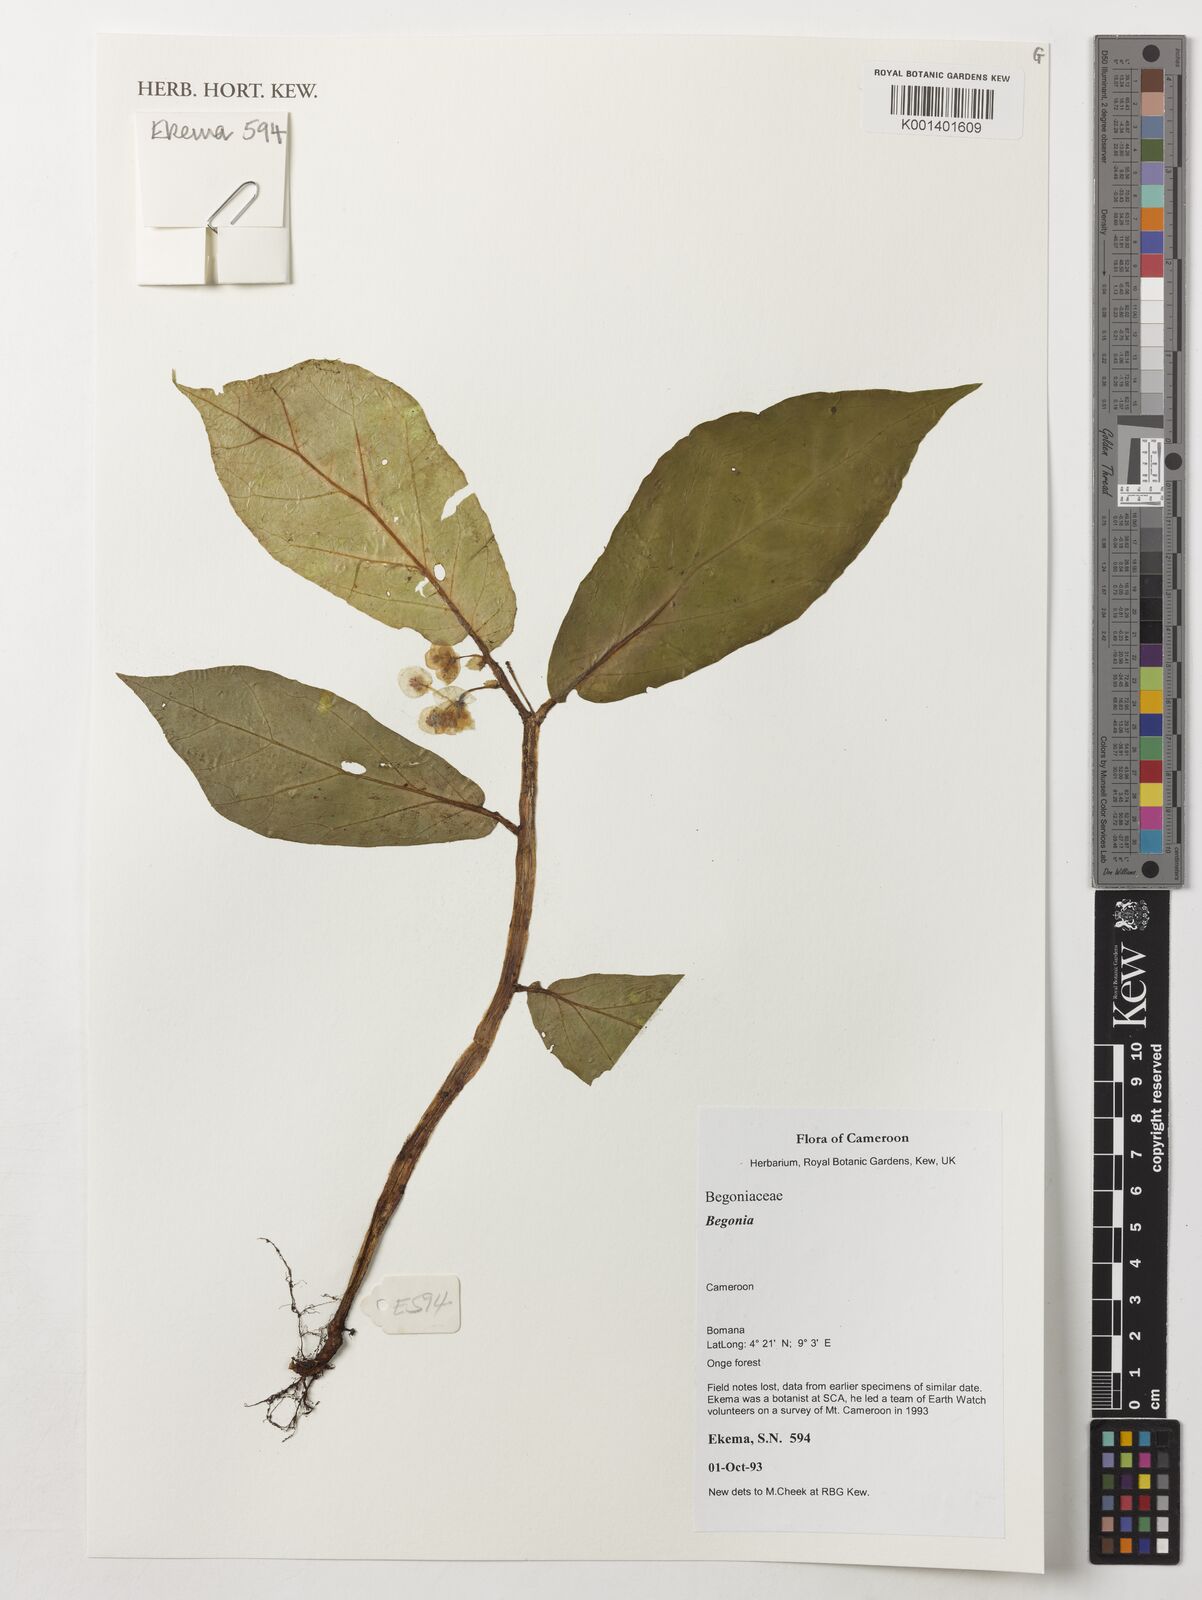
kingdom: Plantae
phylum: Tracheophyta
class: Magnoliopsida
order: Cucurbitales
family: Begoniaceae
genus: Begonia
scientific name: Begonia
